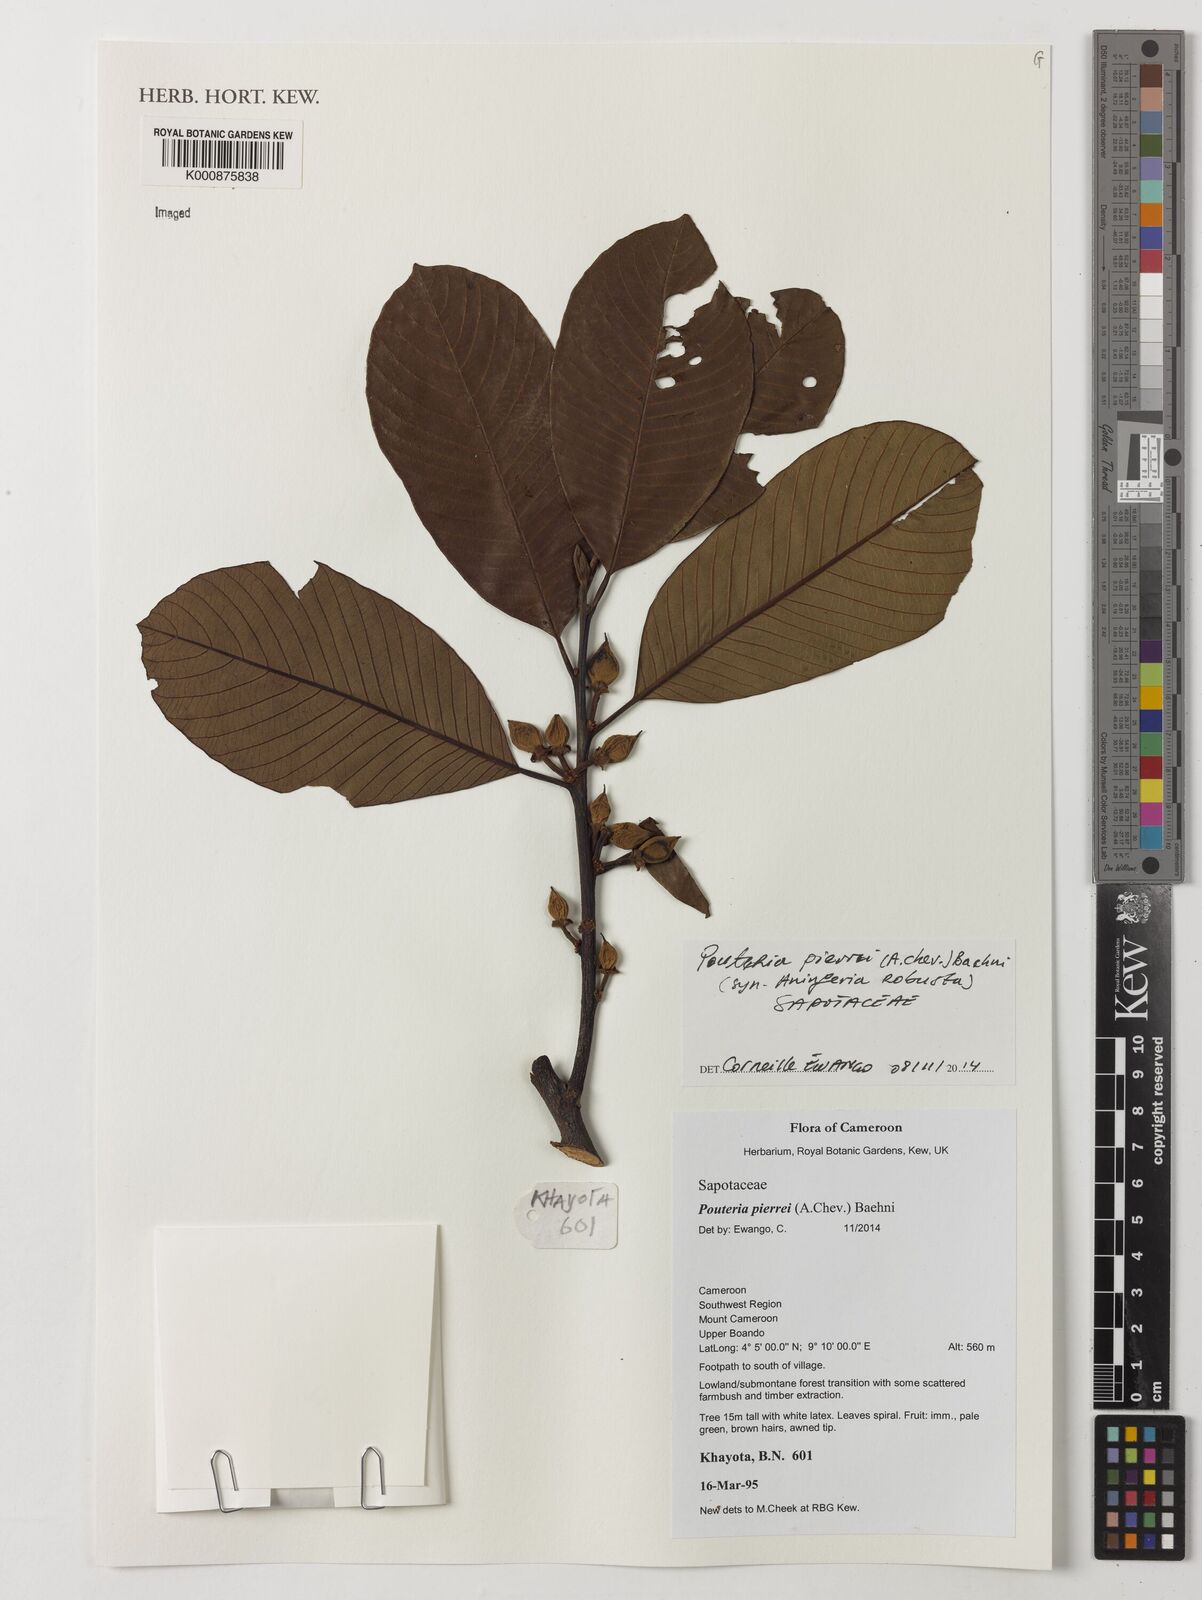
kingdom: Plantae
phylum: Tracheophyta
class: Magnoliopsida
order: Ericales
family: Sapotaceae
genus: Aningeria
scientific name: Aningeria pierrei
